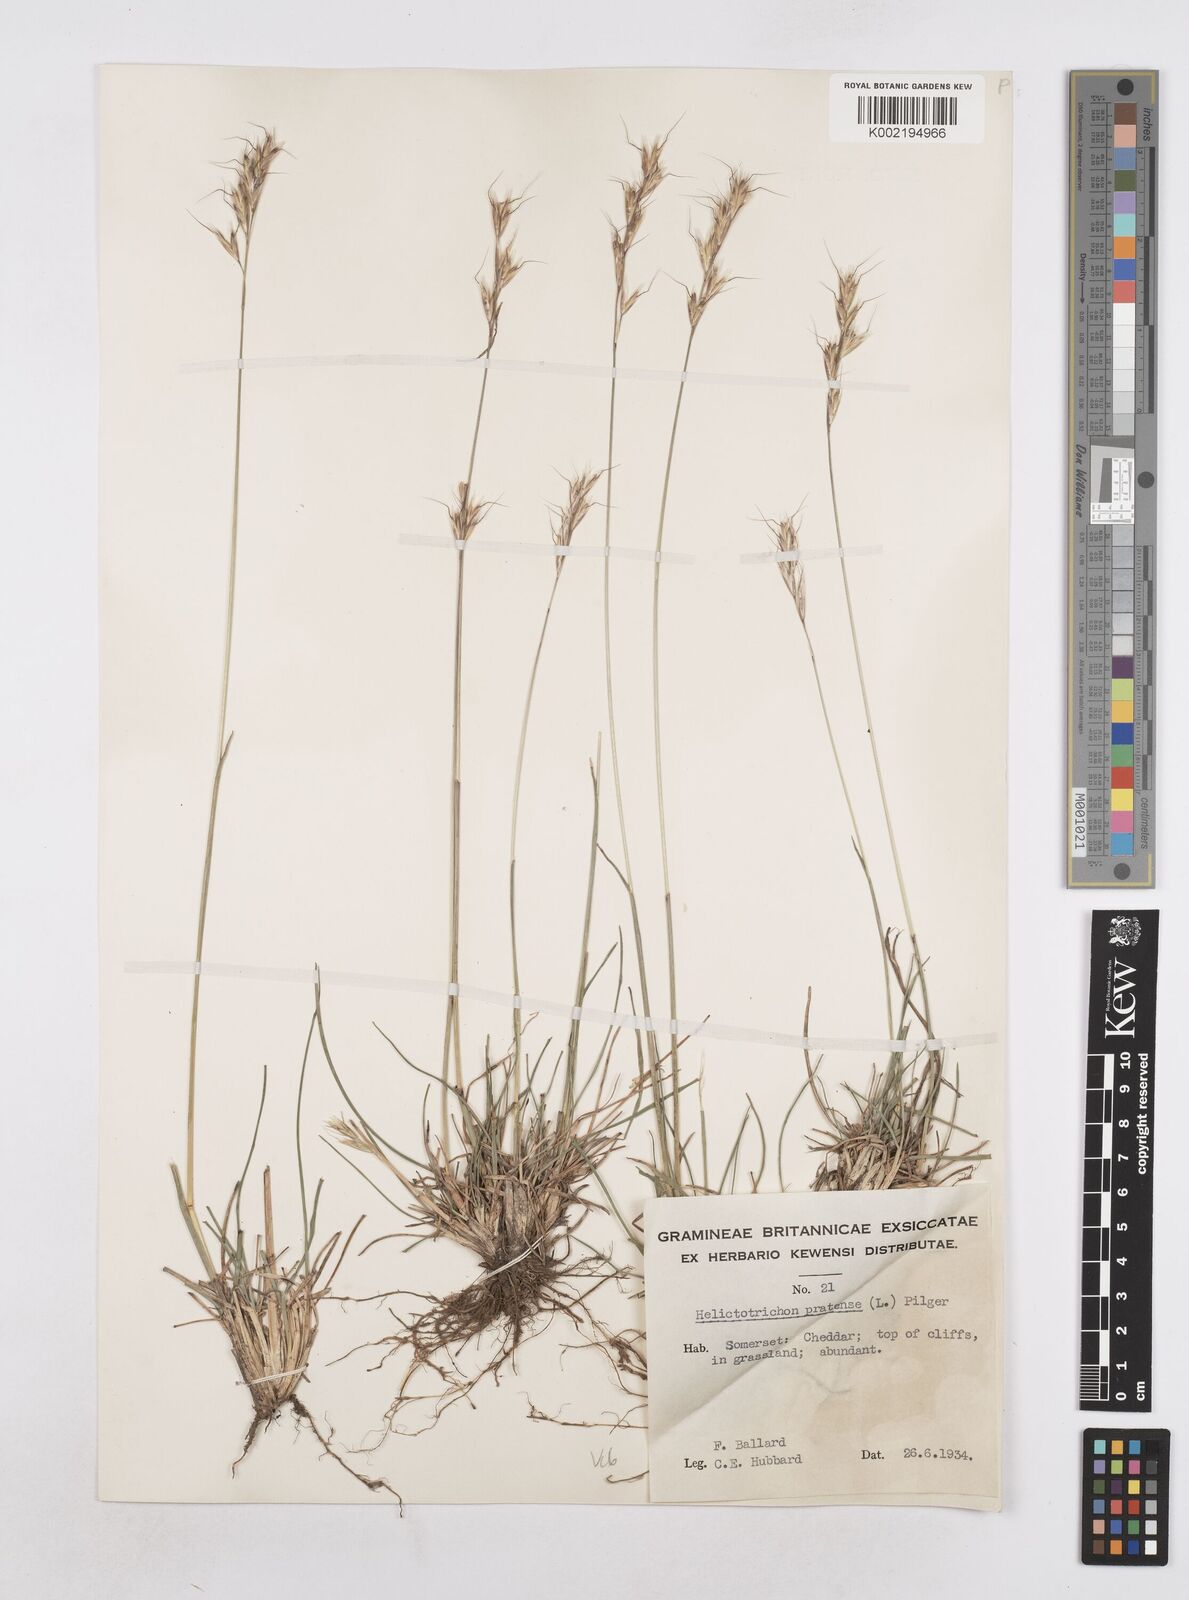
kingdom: Plantae
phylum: Tracheophyta
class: Liliopsida
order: Poales
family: Poaceae
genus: Helictochloa
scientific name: Helictochloa pratensis
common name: Meadow oat grass
